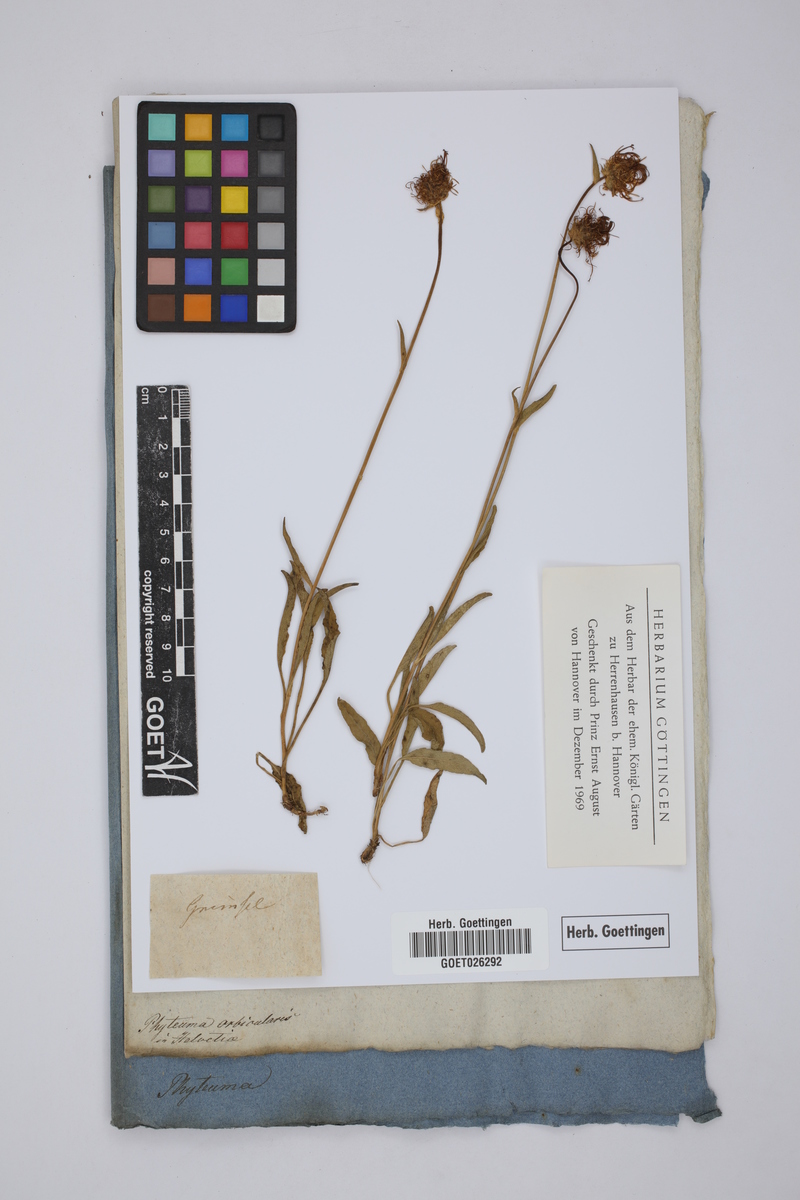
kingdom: Plantae
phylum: Tracheophyta
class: Magnoliopsida
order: Asterales
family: Campanulaceae
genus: Phyteuma
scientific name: Phyteuma orbiculare
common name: Round-headed rampion
